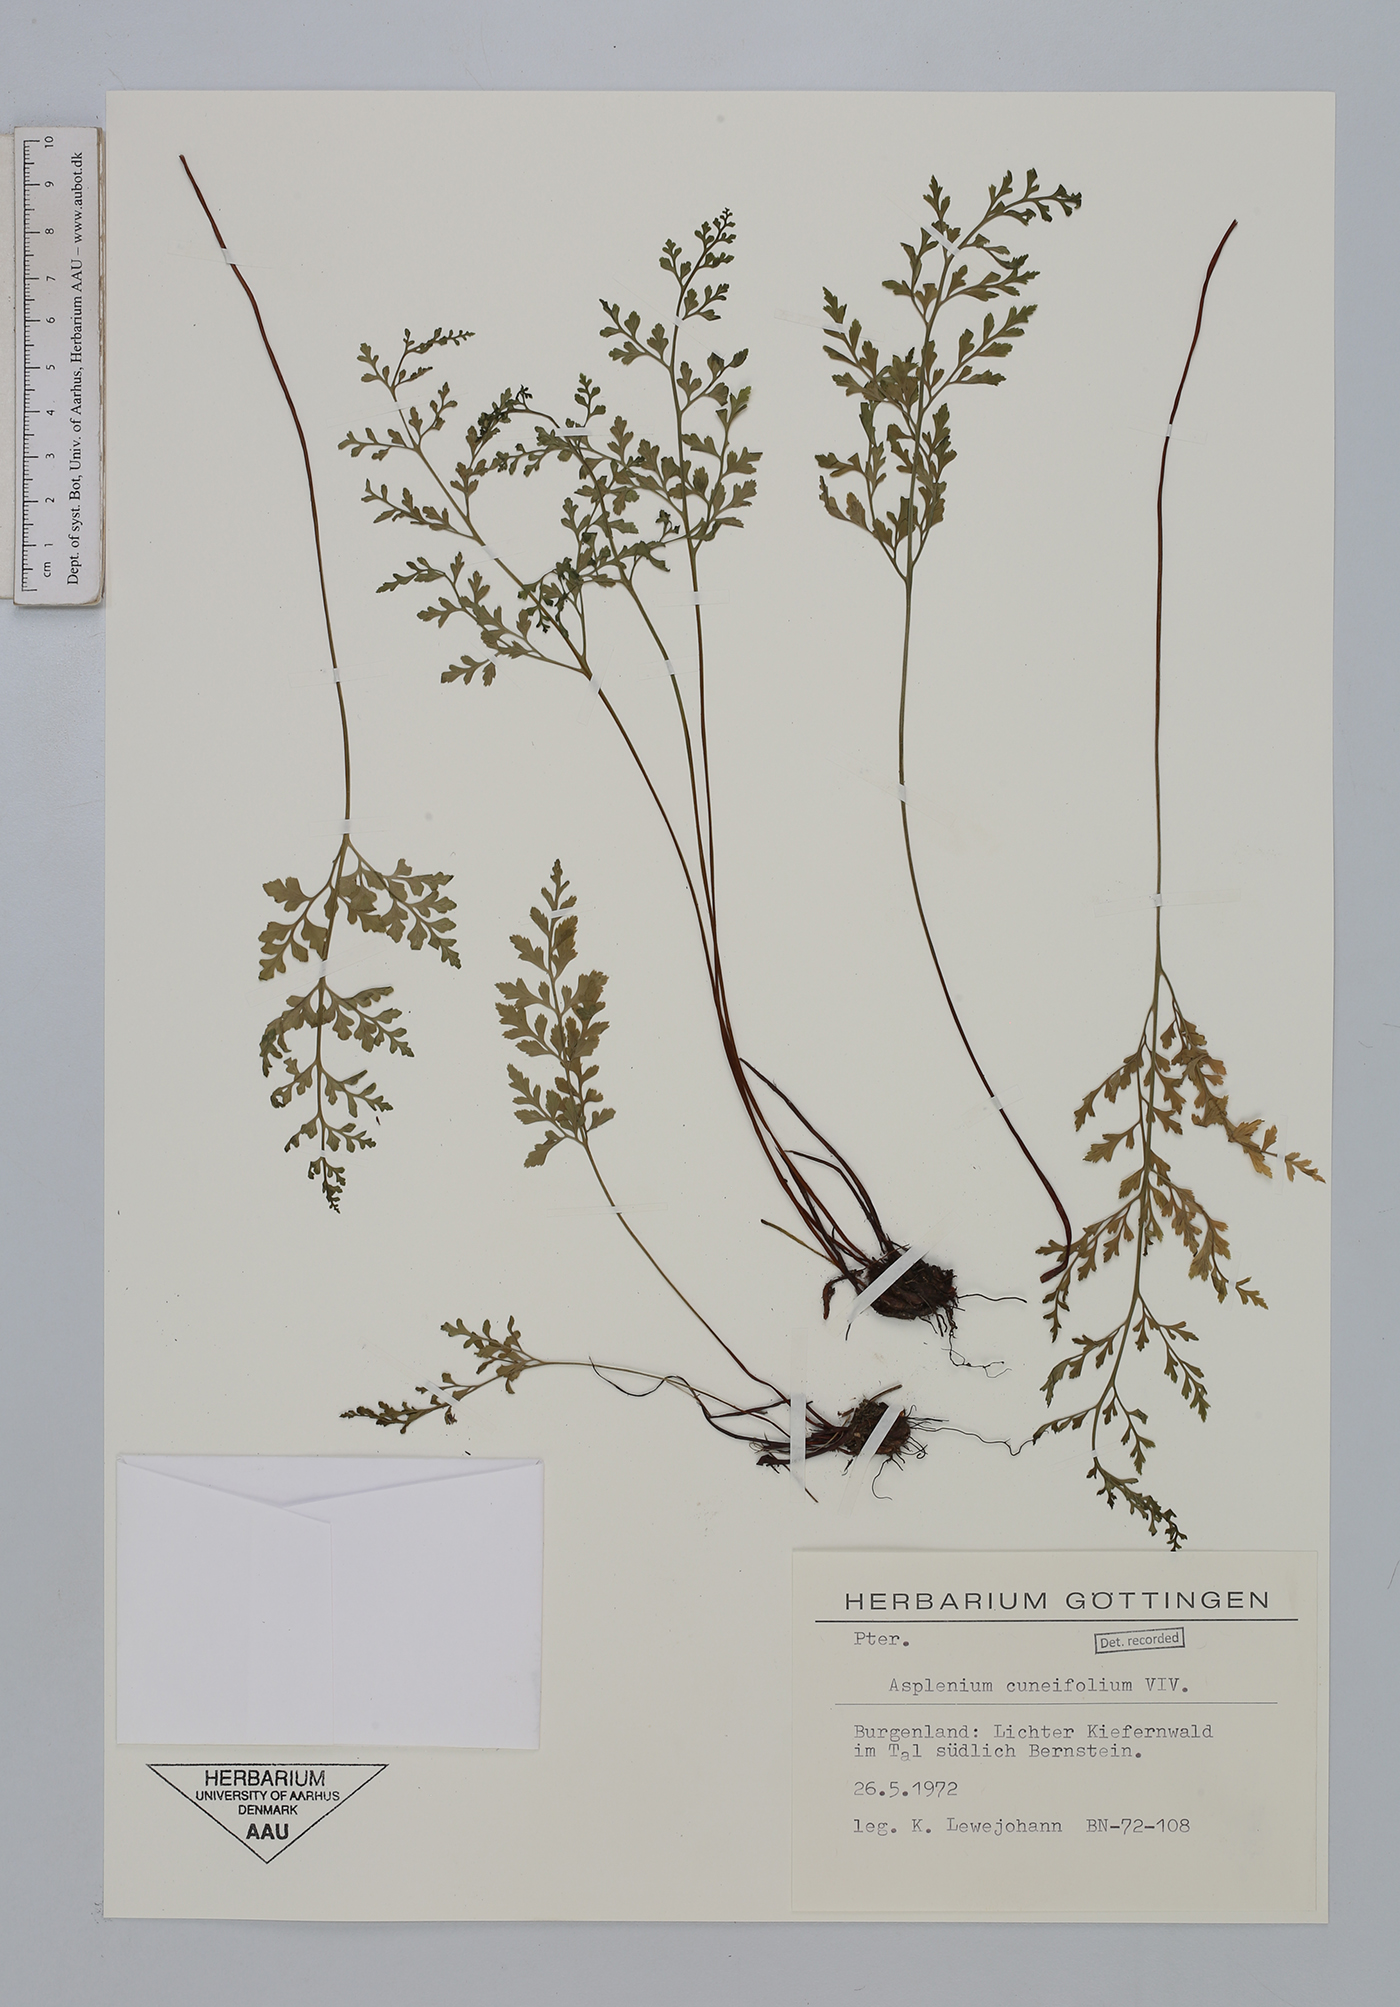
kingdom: Plantae
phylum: Tracheophyta
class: Polypodiopsida
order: Polypodiales
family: Aspleniaceae
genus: Asplenium
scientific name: Asplenium cuneifolium
